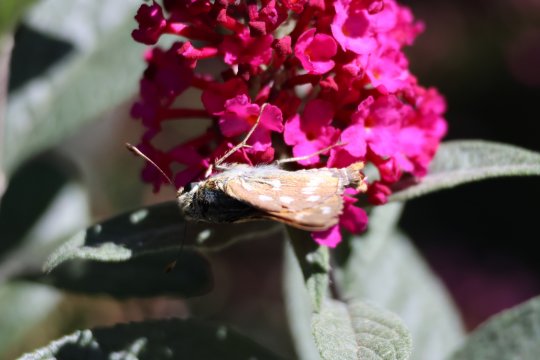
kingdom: Animalia
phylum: Arthropoda
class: Insecta
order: Lepidoptera
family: Hesperiidae
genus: Hesperia
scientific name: Hesperia comma
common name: Western Branded Skipper
